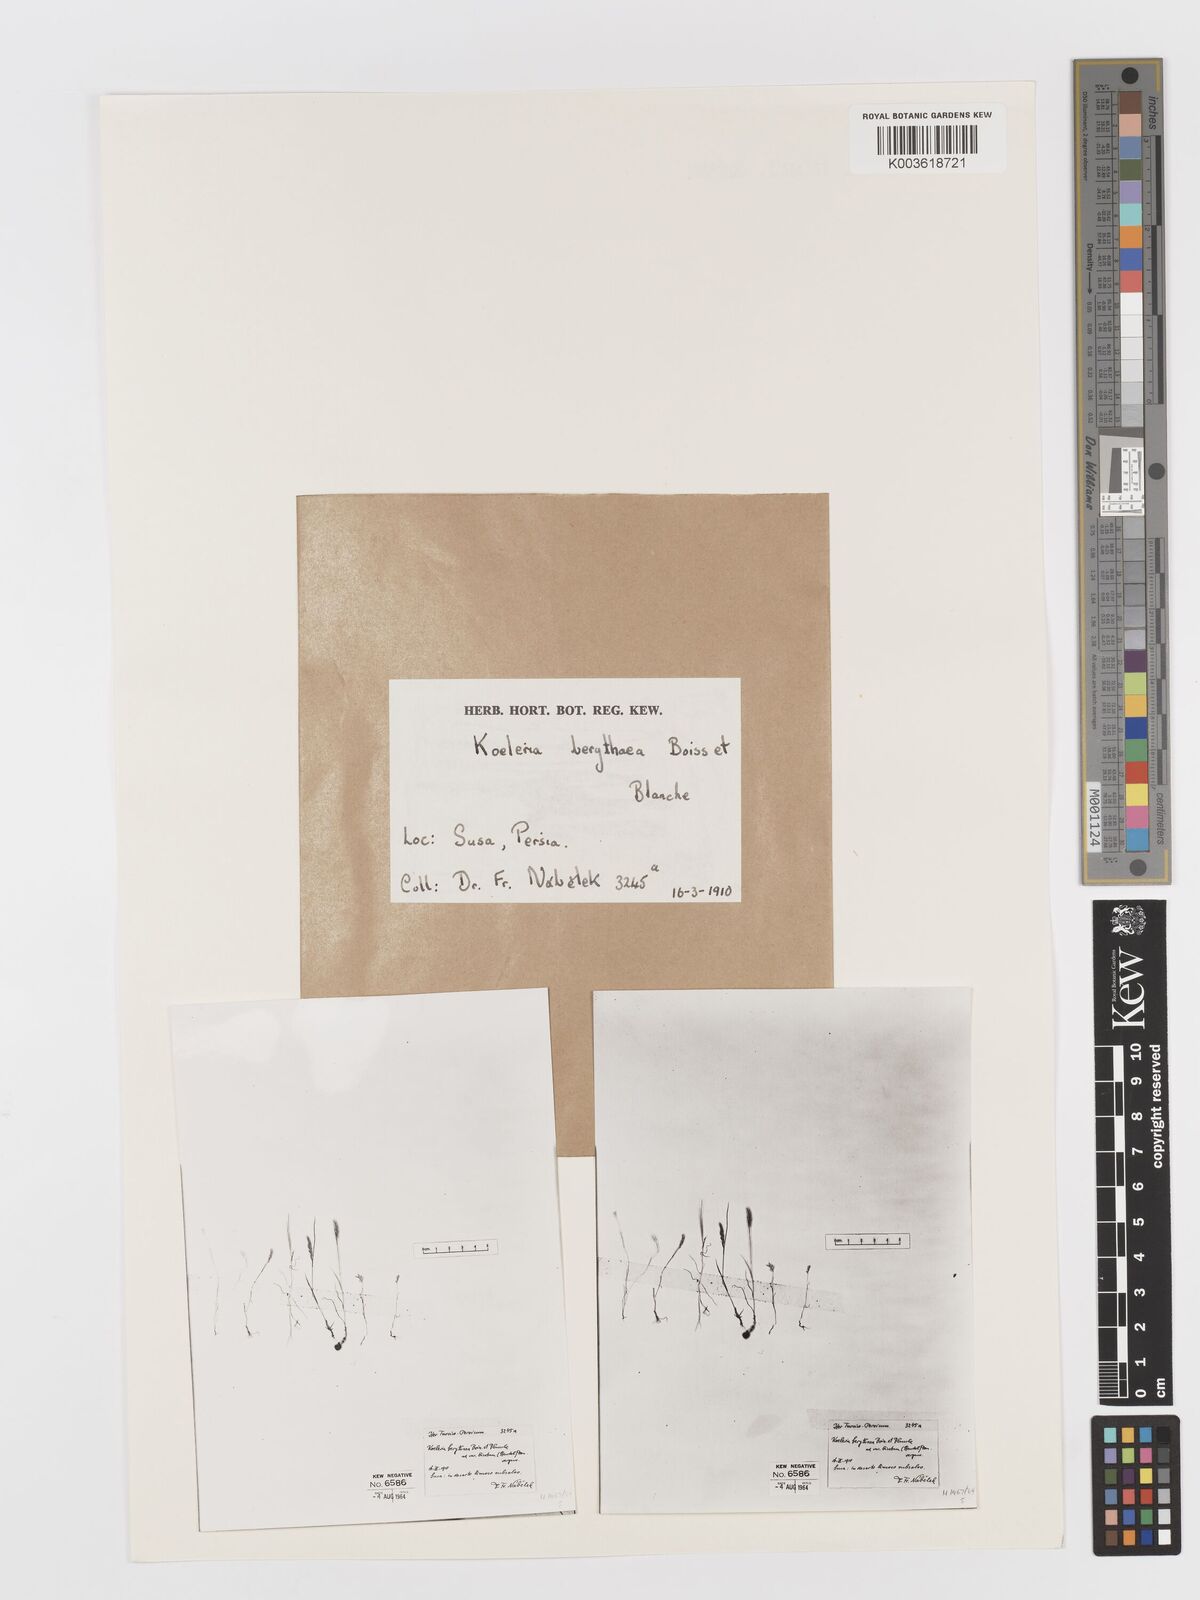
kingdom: Plantae
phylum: Tracheophyta
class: Liliopsida
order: Poales
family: Poaceae
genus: Rostraria
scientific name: Rostraria smyrnaea
